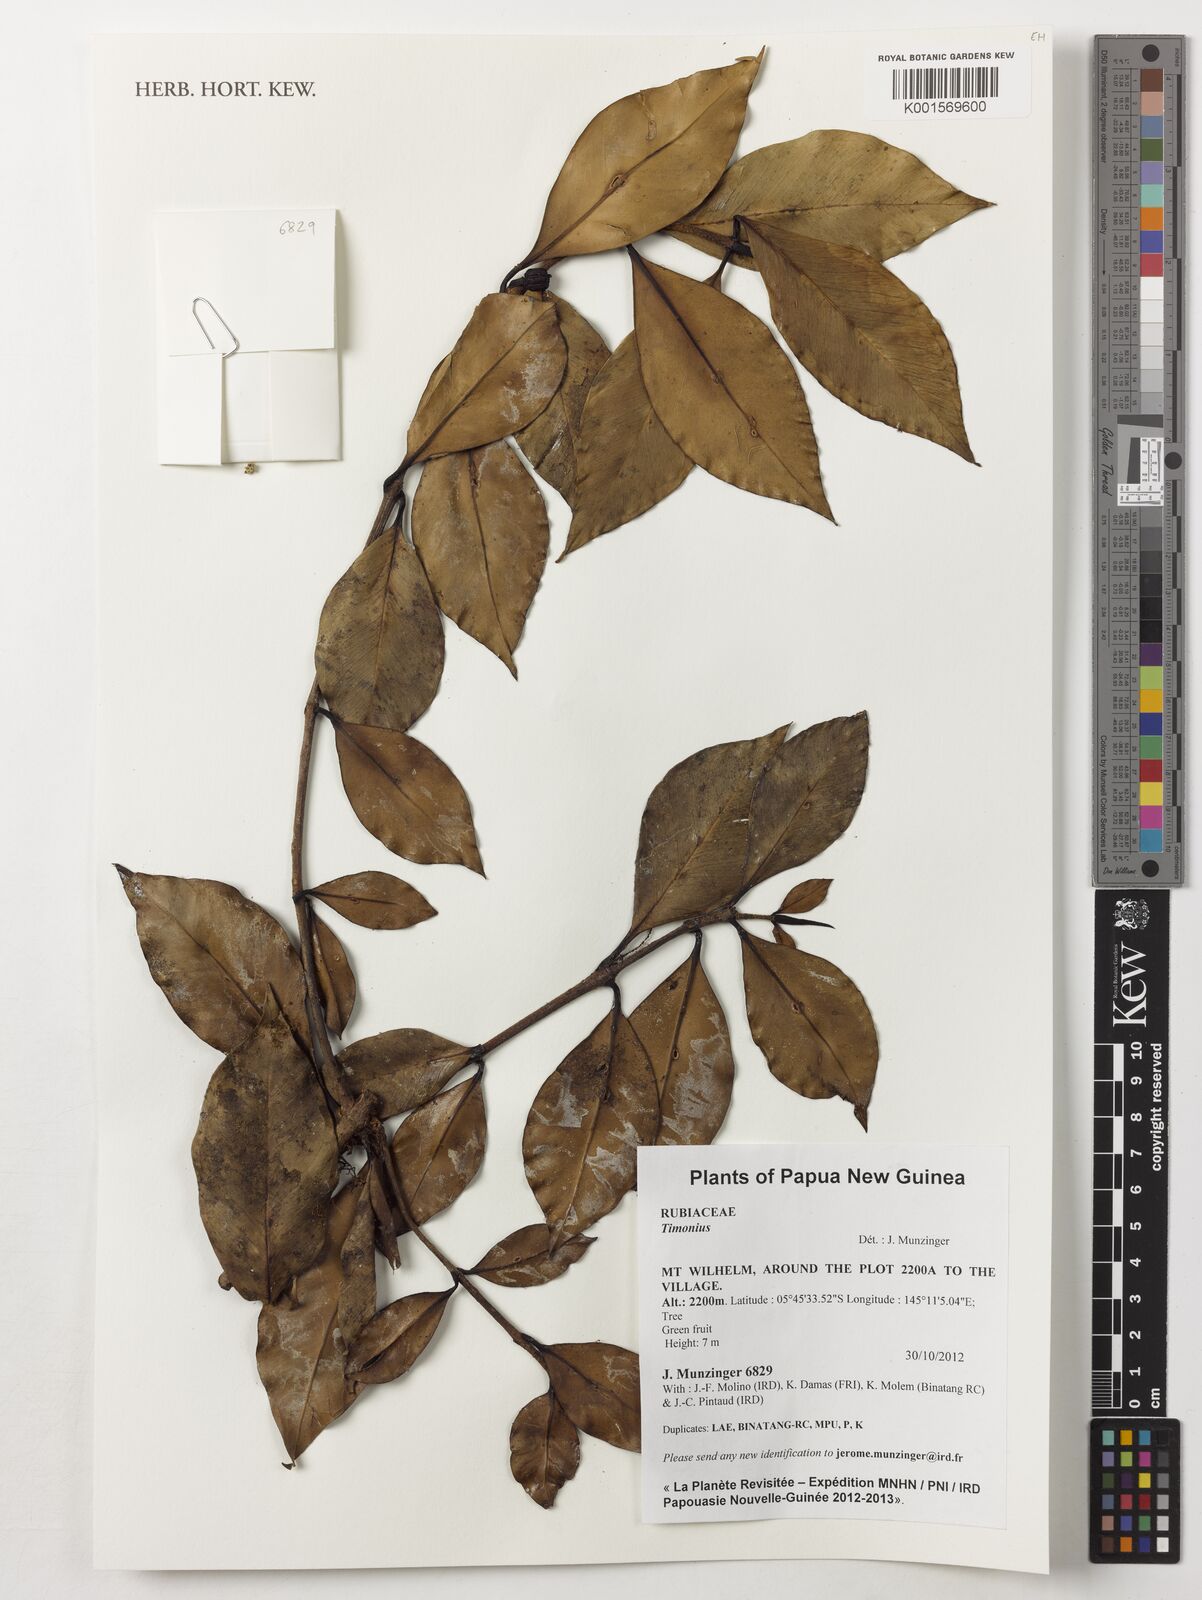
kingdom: Plantae
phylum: Tracheophyta
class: Magnoliopsida
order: Gentianales
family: Rubiaceae
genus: Timonius
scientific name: Timonius
